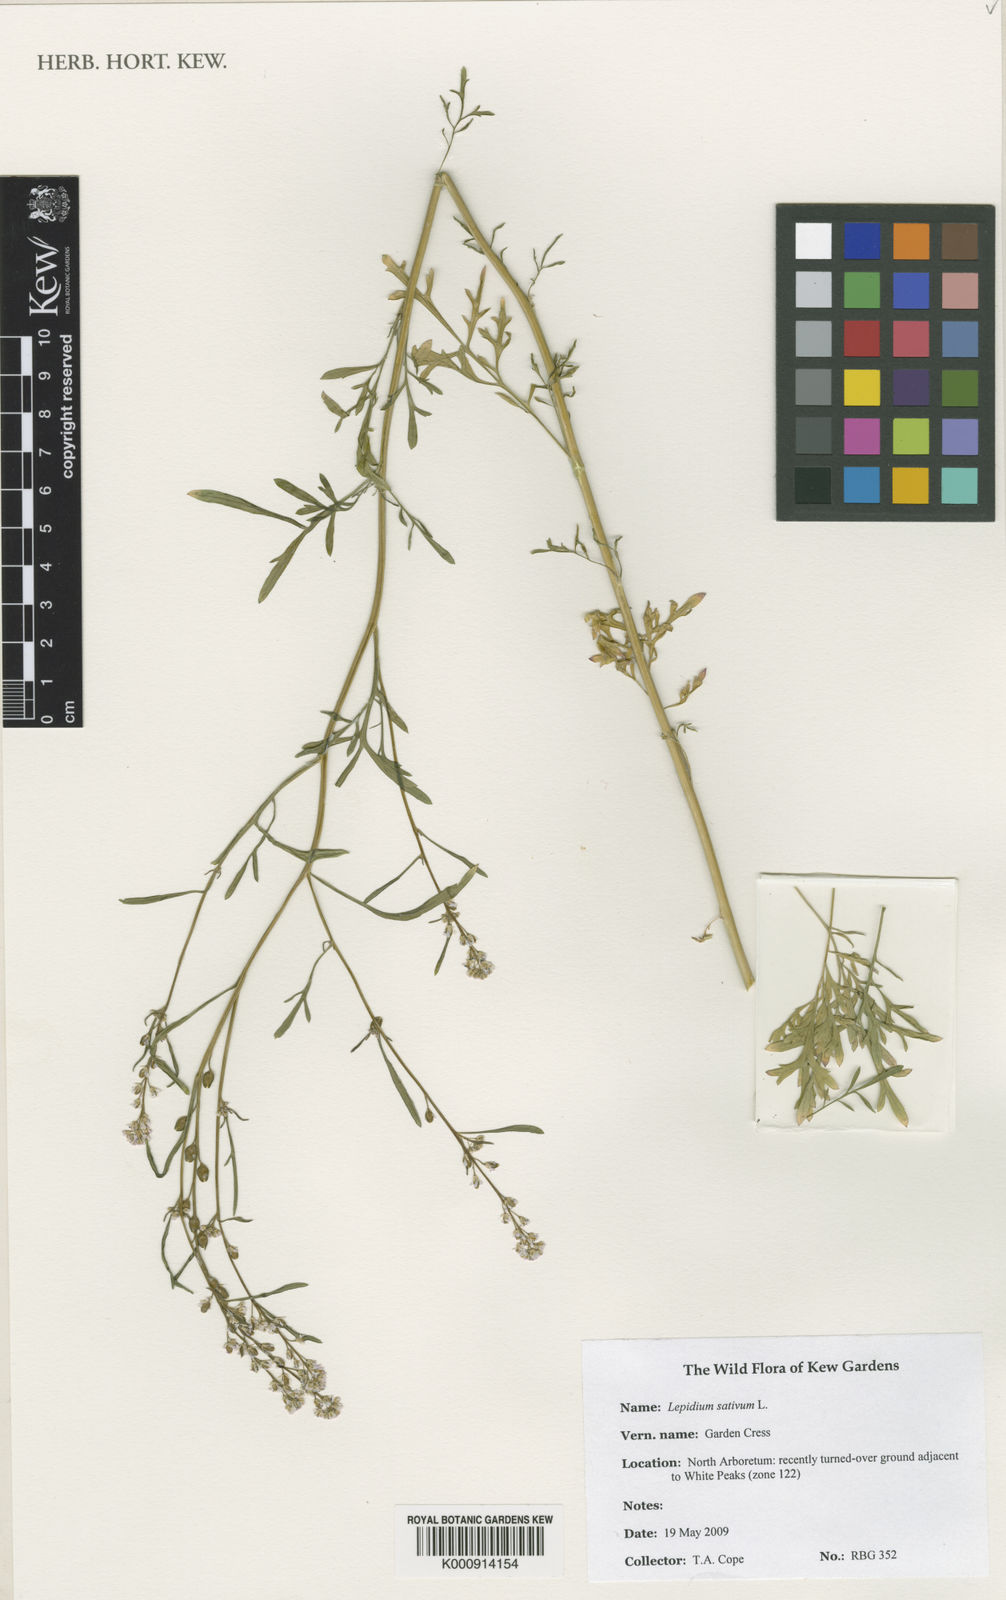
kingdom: Plantae
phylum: Tracheophyta
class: Magnoliopsida
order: Brassicales
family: Brassicaceae
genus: Lepidium
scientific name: Lepidium sativum
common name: Garden cress
